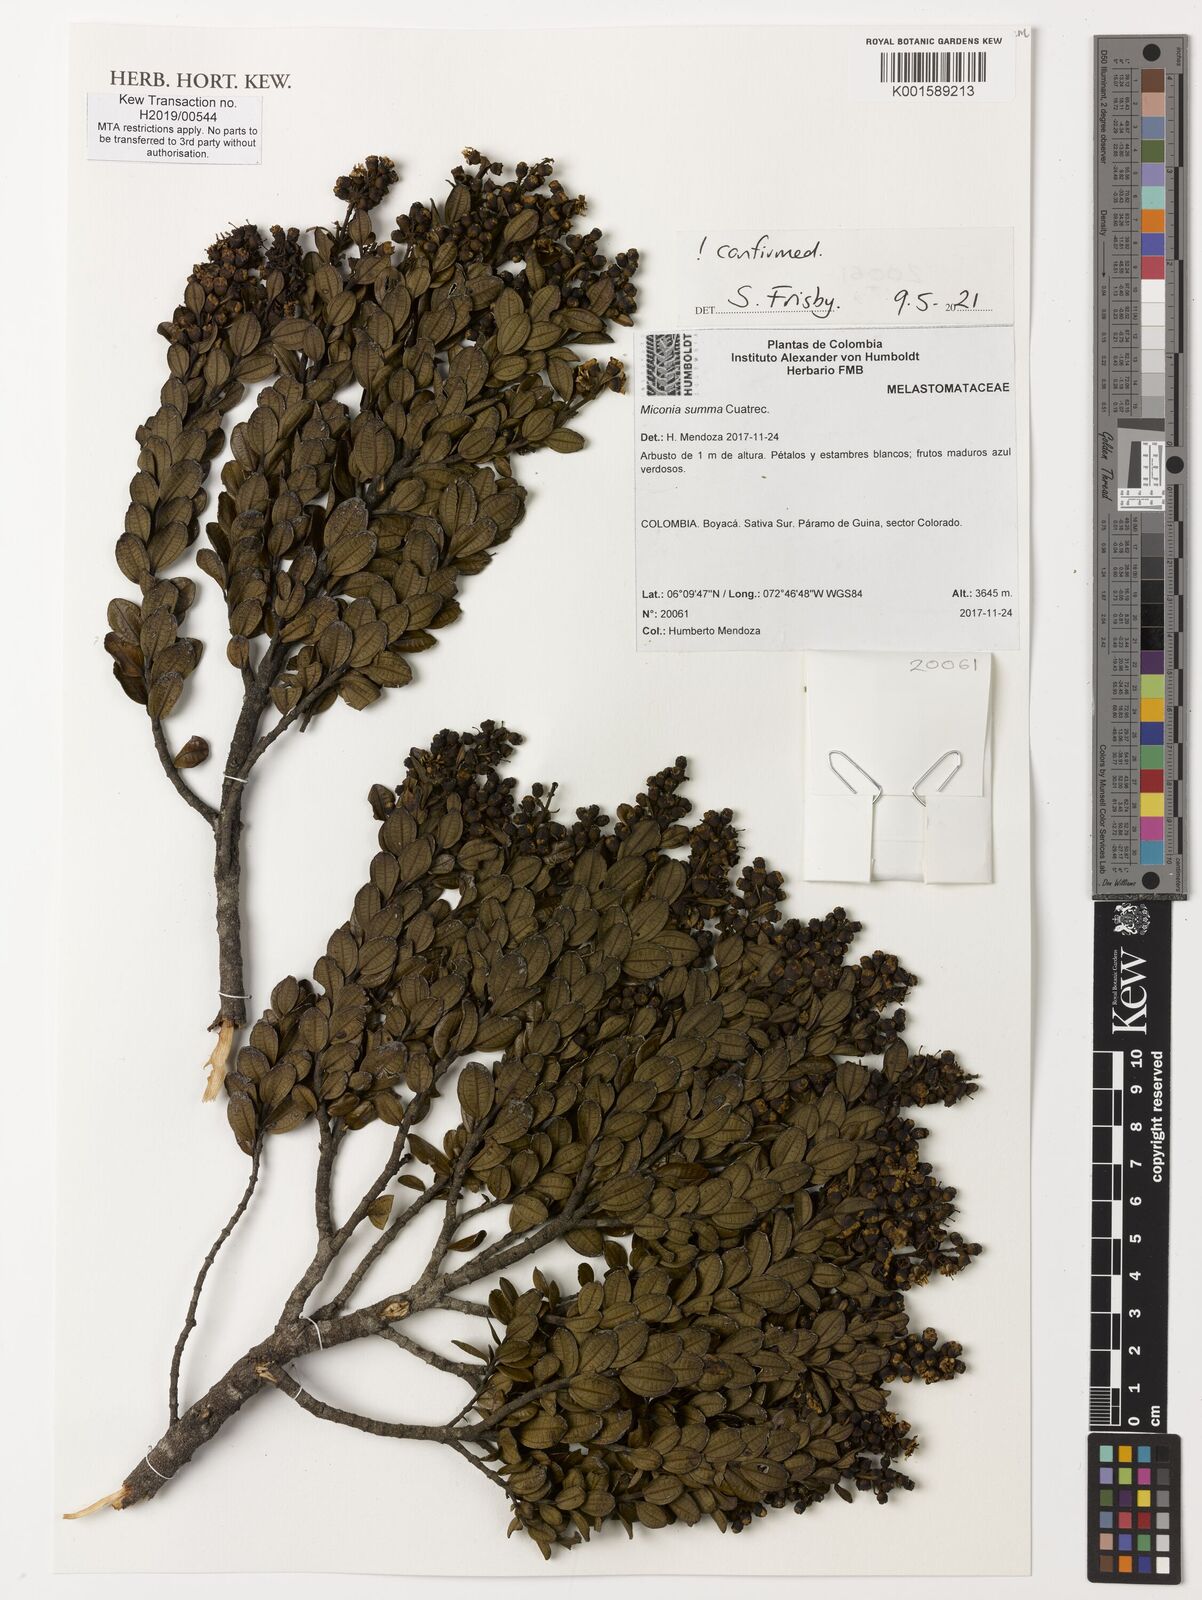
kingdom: Plantae
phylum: Tracheophyta
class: Magnoliopsida
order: Myrtales
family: Melastomataceae
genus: Miconia
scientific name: Miconia summa
